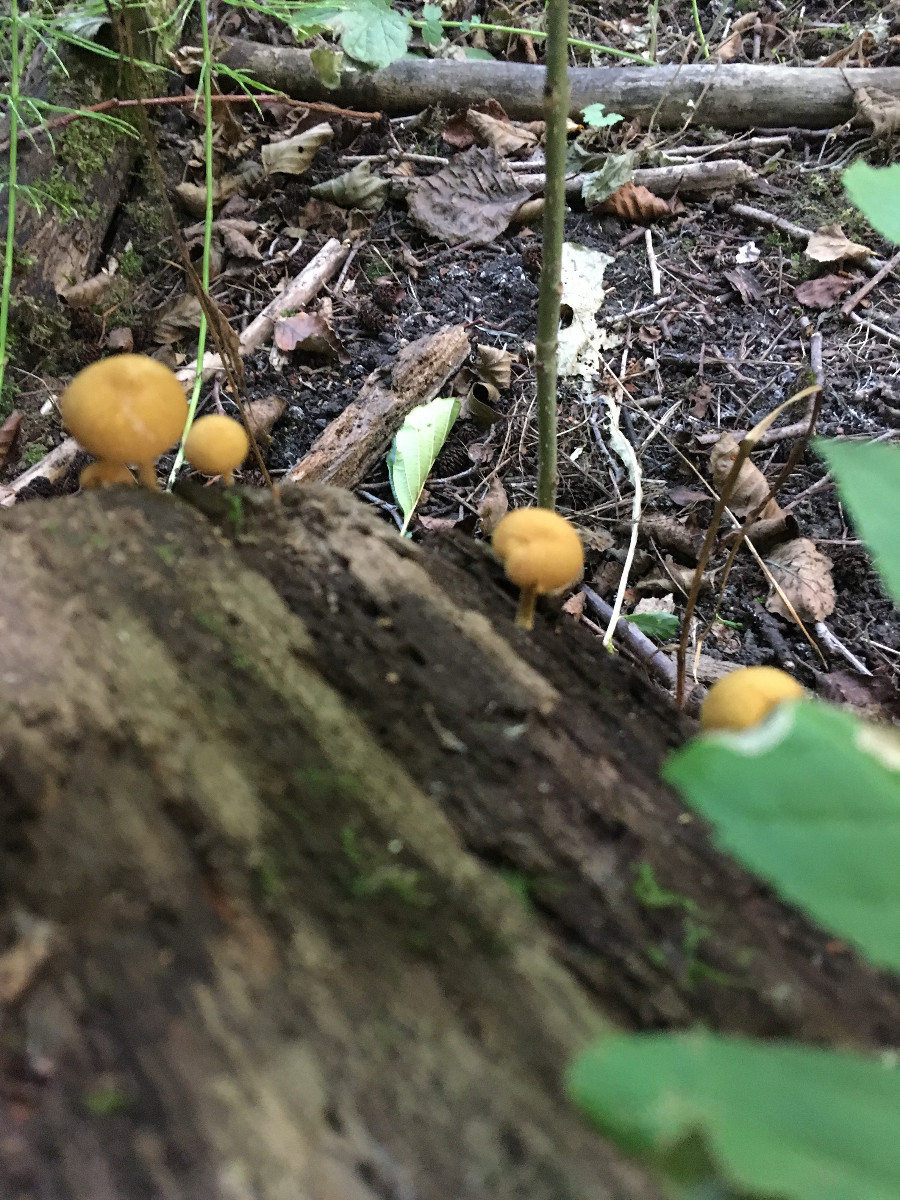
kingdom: Fungi
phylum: Basidiomycota
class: Agaricomycetes
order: Agaricales
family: Tubariaceae
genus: Flammulaster
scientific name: Flammulaster limulatus
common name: gylden grynskælhat
